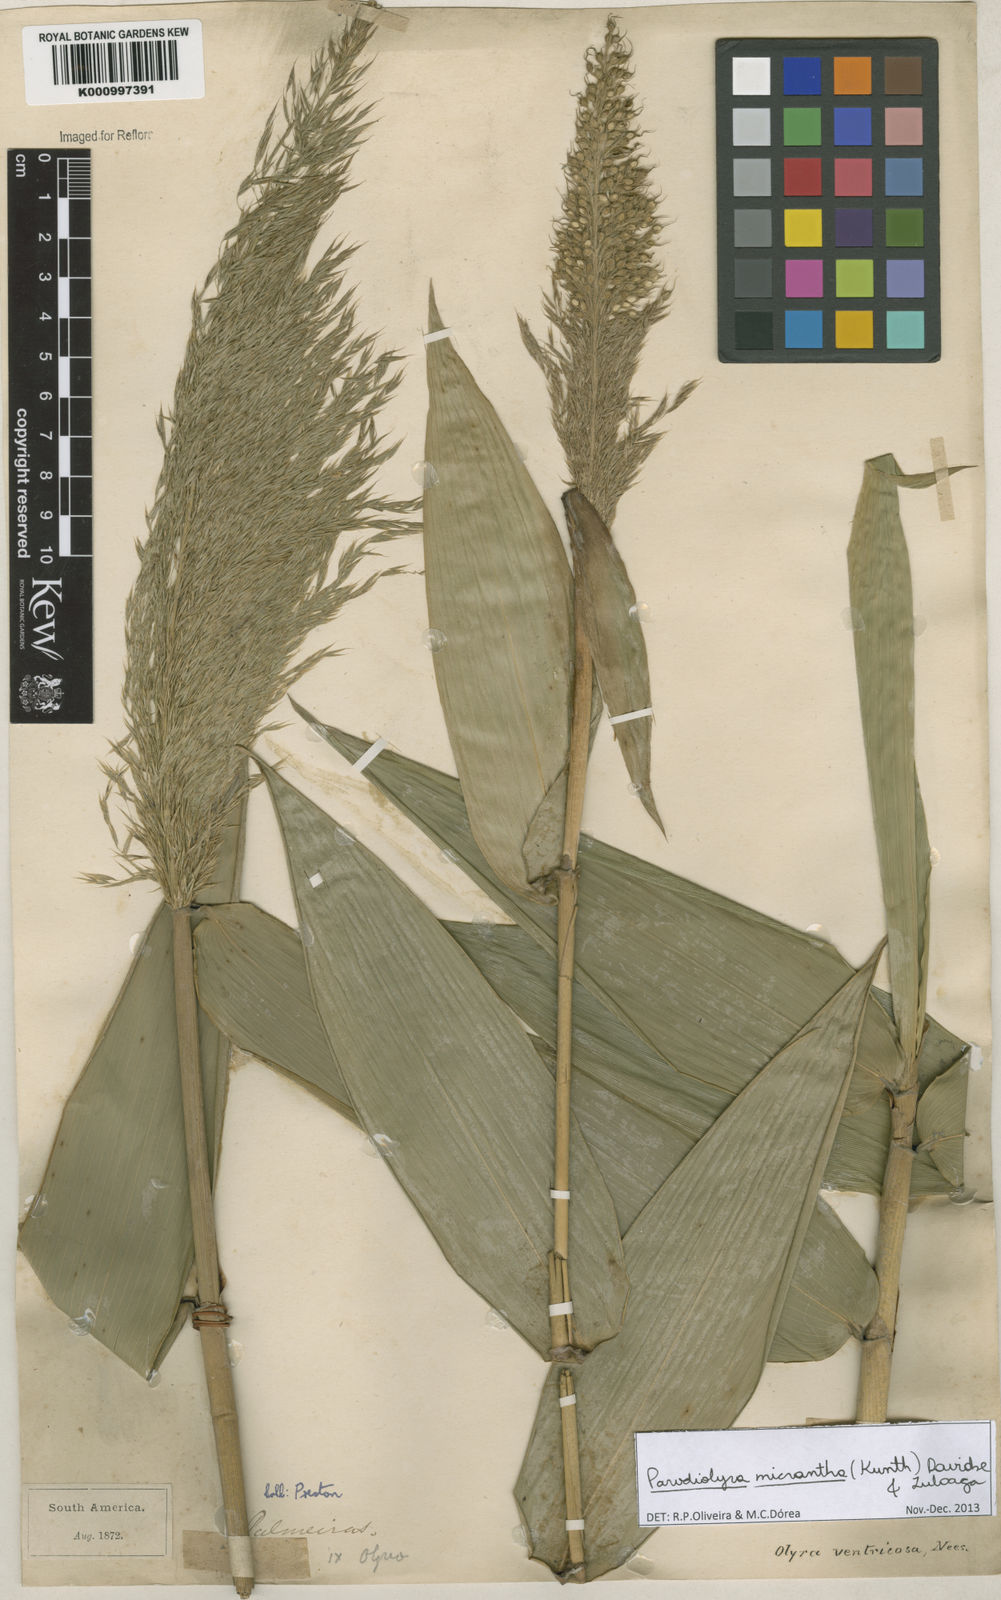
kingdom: Plantae
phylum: Tracheophyta
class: Liliopsida
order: Poales
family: Poaceae
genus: Taquara
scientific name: Taquara micrantha
